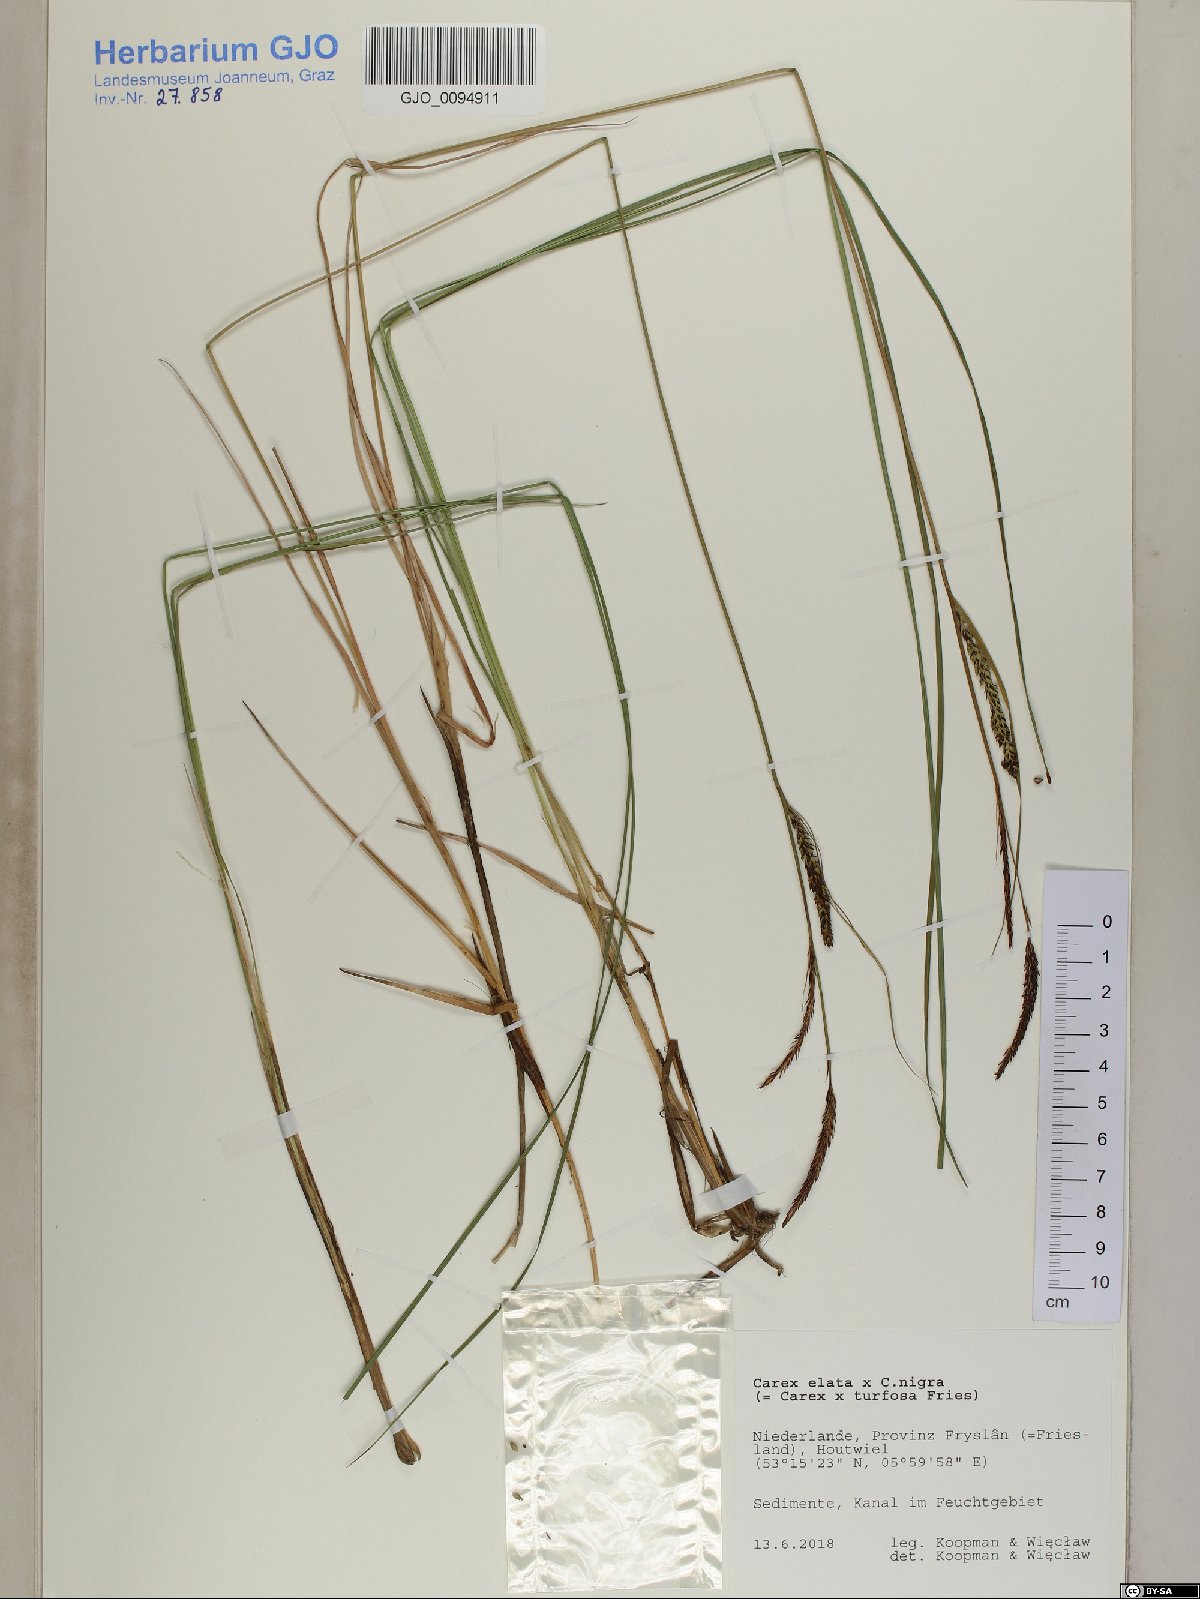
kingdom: Plantae
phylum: Tracheophyta
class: Liliopsida
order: Poales
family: Cyperaceae
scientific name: Cyperaceae
